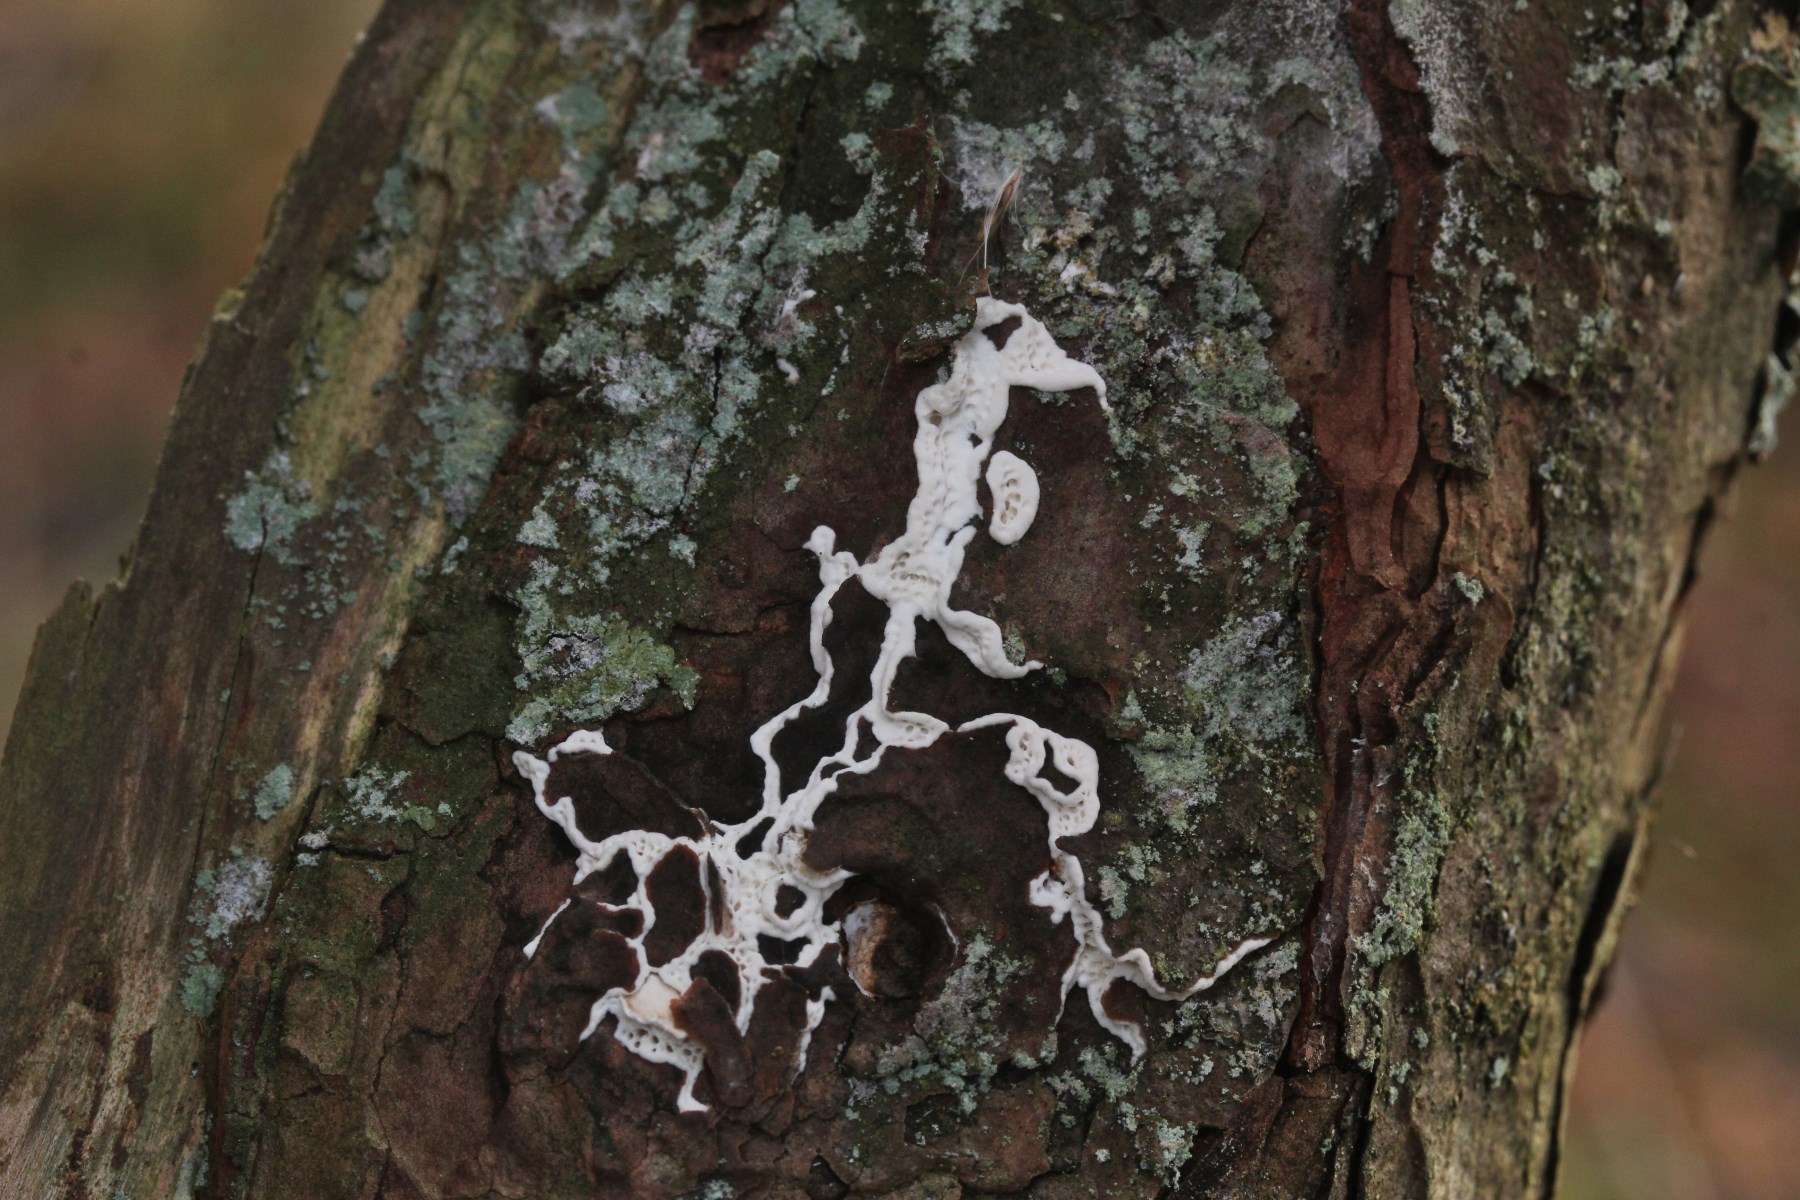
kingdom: Fungi
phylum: Basidiomycota
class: Agaricomycetes
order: Polyporales
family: Fomitopsidaceae
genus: Fomitopsis
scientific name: Fomitopsis
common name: fyrre-skiveporesvamp
